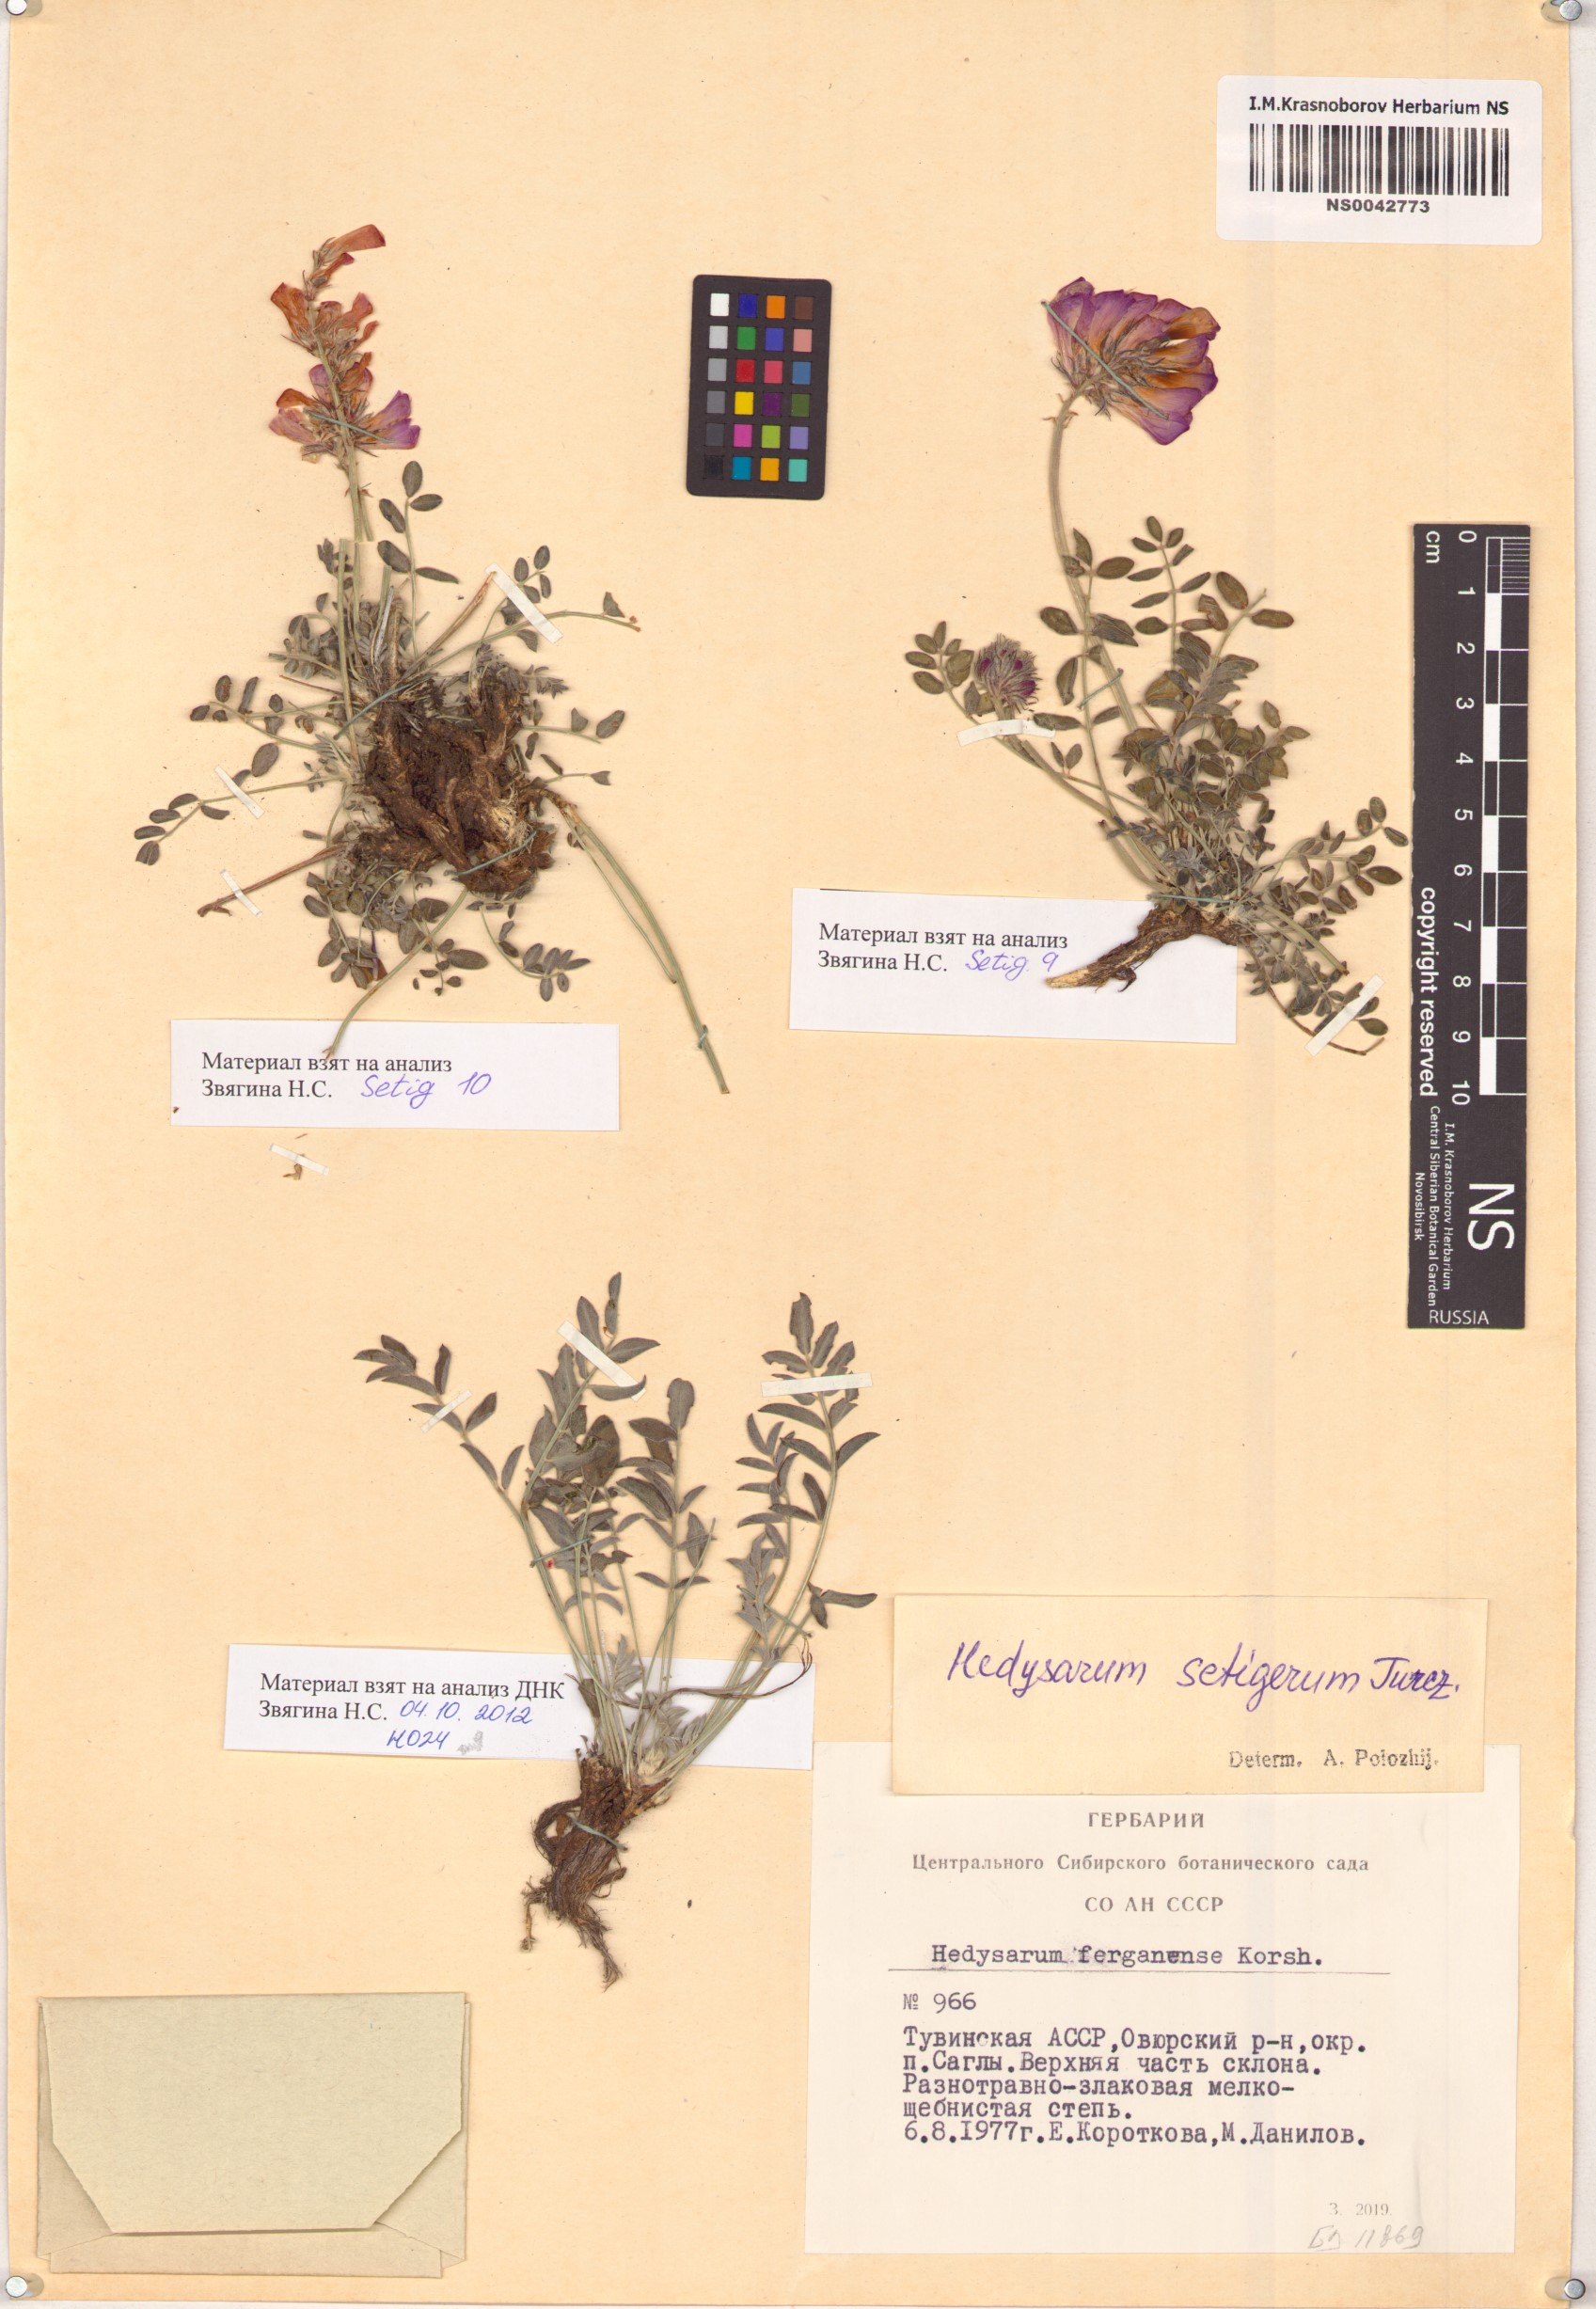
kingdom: Plantae
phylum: Tracheophyta
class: Magnoliopsida
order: Fabales
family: Fabaceae
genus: Hedysarum
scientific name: Hedysarum setigerum
